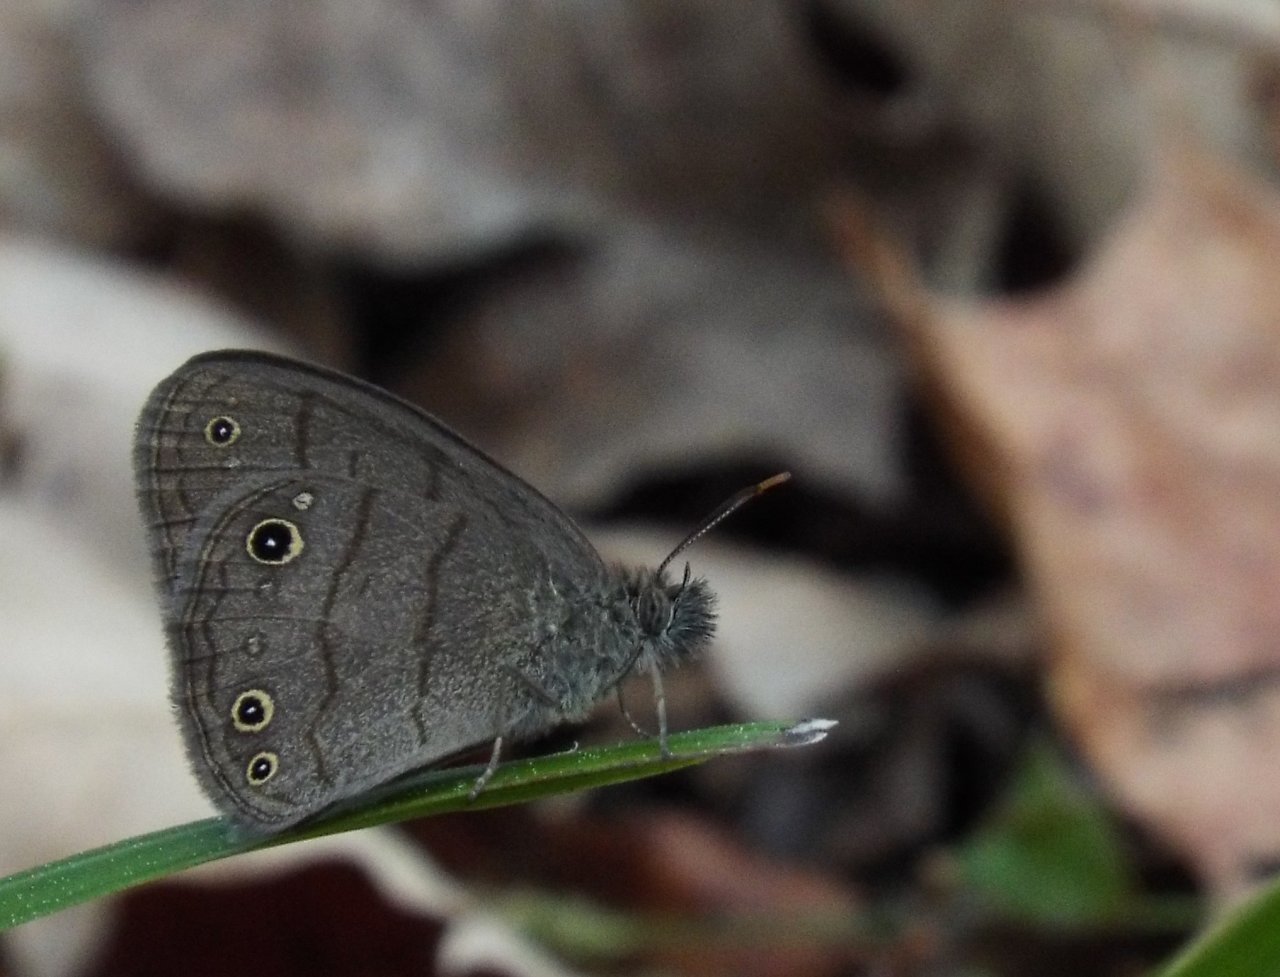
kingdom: Animalia
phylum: Arthropoda
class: Insecta
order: Lepidoptera
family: Nymphalidae
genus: Hermeuptychia
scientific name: Hermeuptychia
